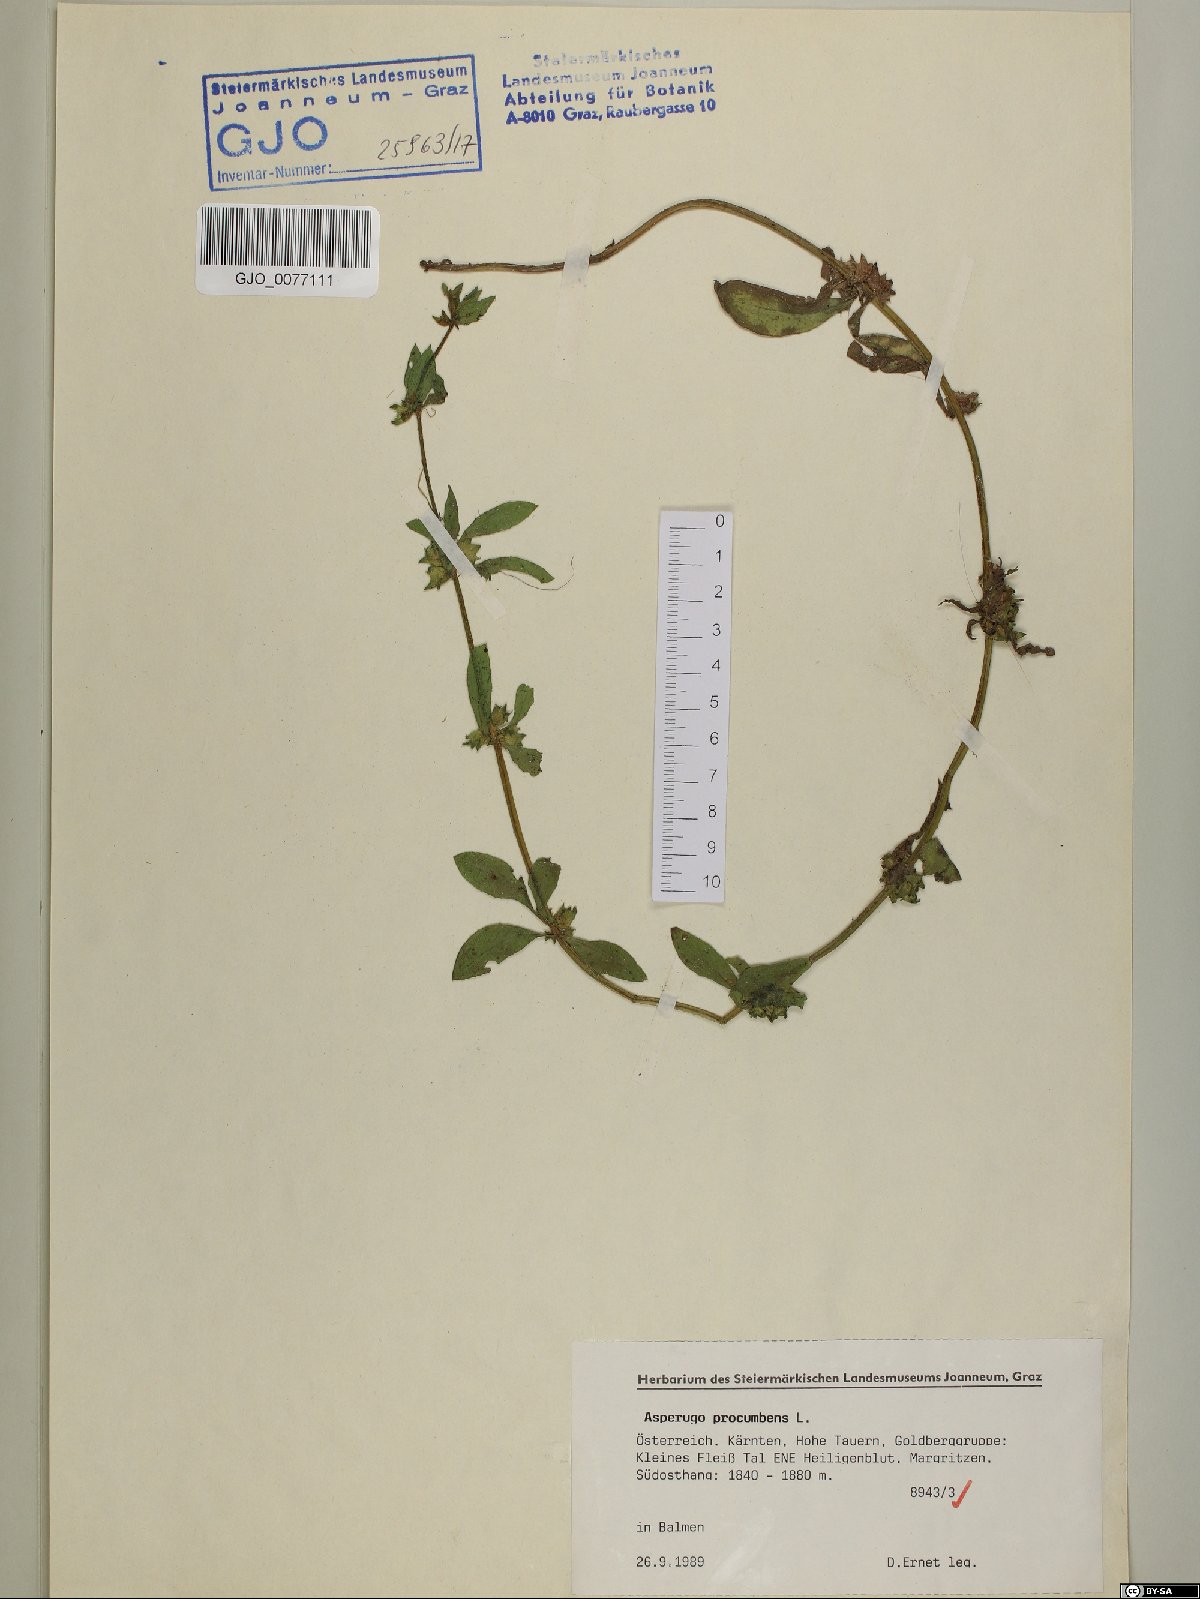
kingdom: Plantae
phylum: Tracheophyta
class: Magnoliopsida
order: Boraginales
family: Boraginaceae
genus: Asperugo
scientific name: Asperugo procumbens
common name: Madwort
